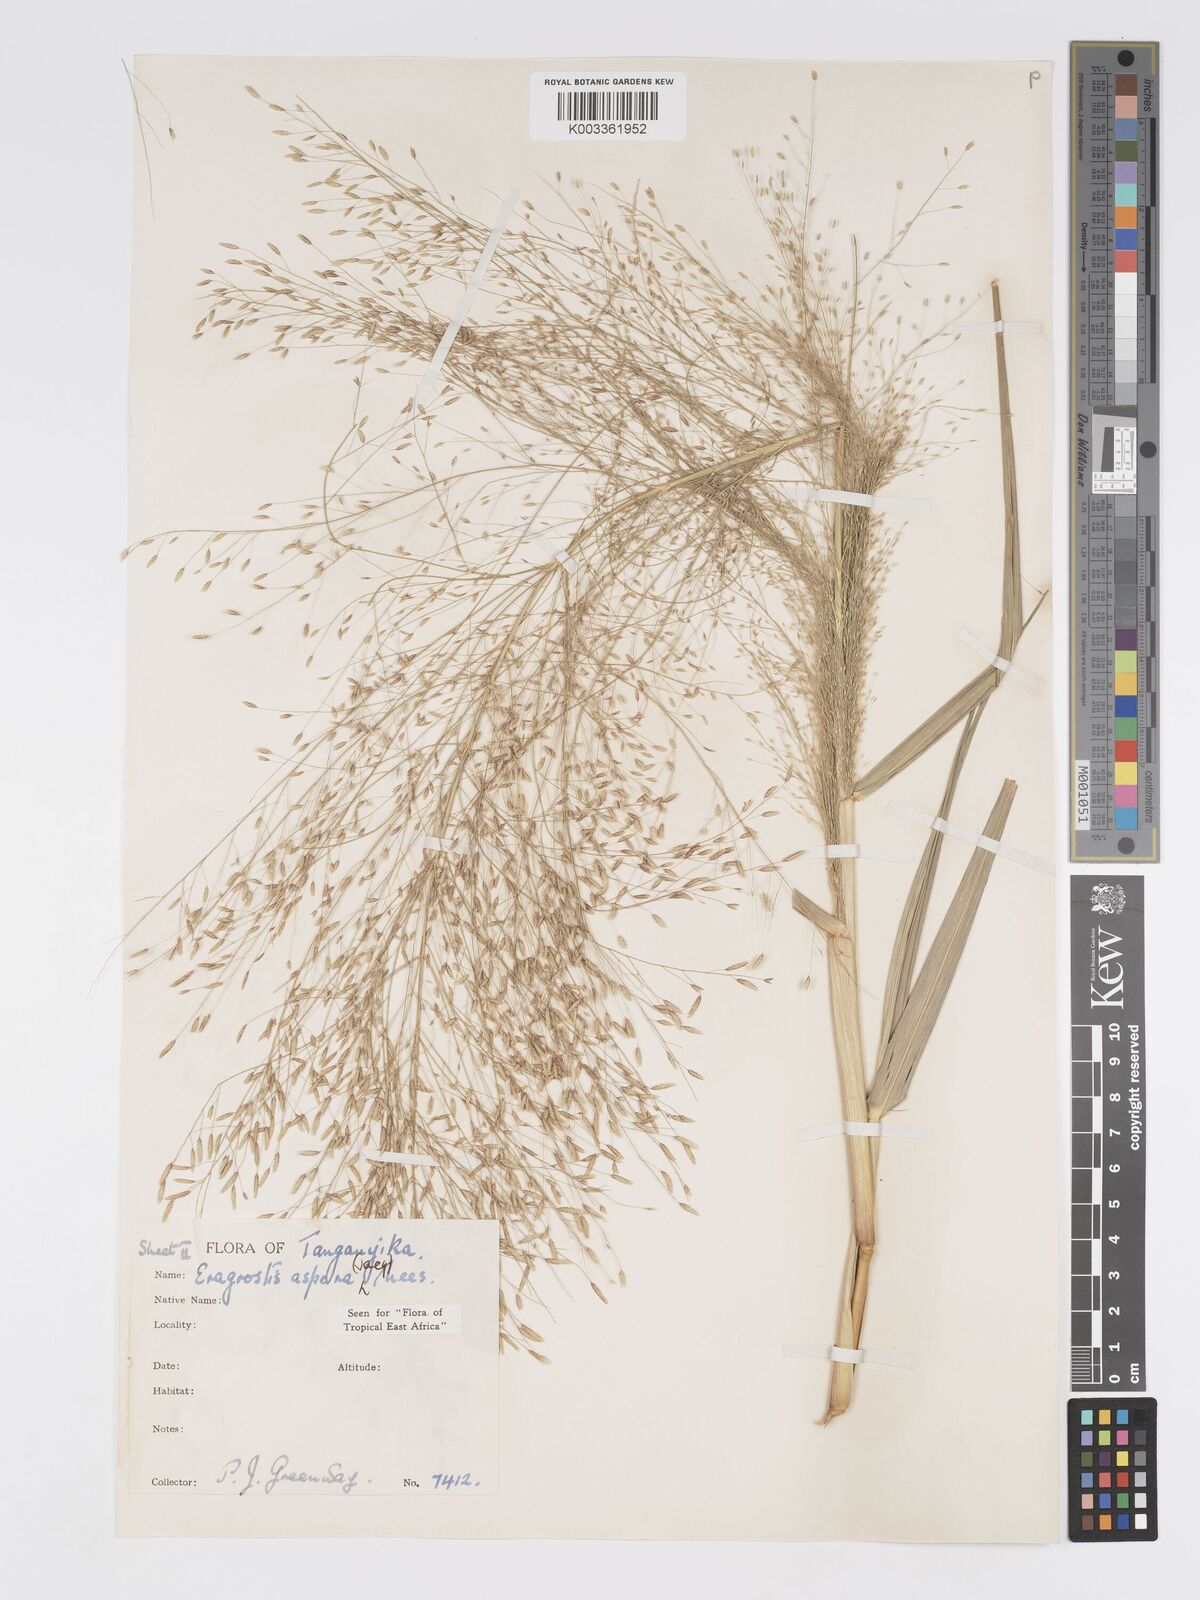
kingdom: Plantae
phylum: Tracheophyta
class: Liliopsida
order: Poales
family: Poaceae
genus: Eragrostis
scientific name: Eragrostis aspera
